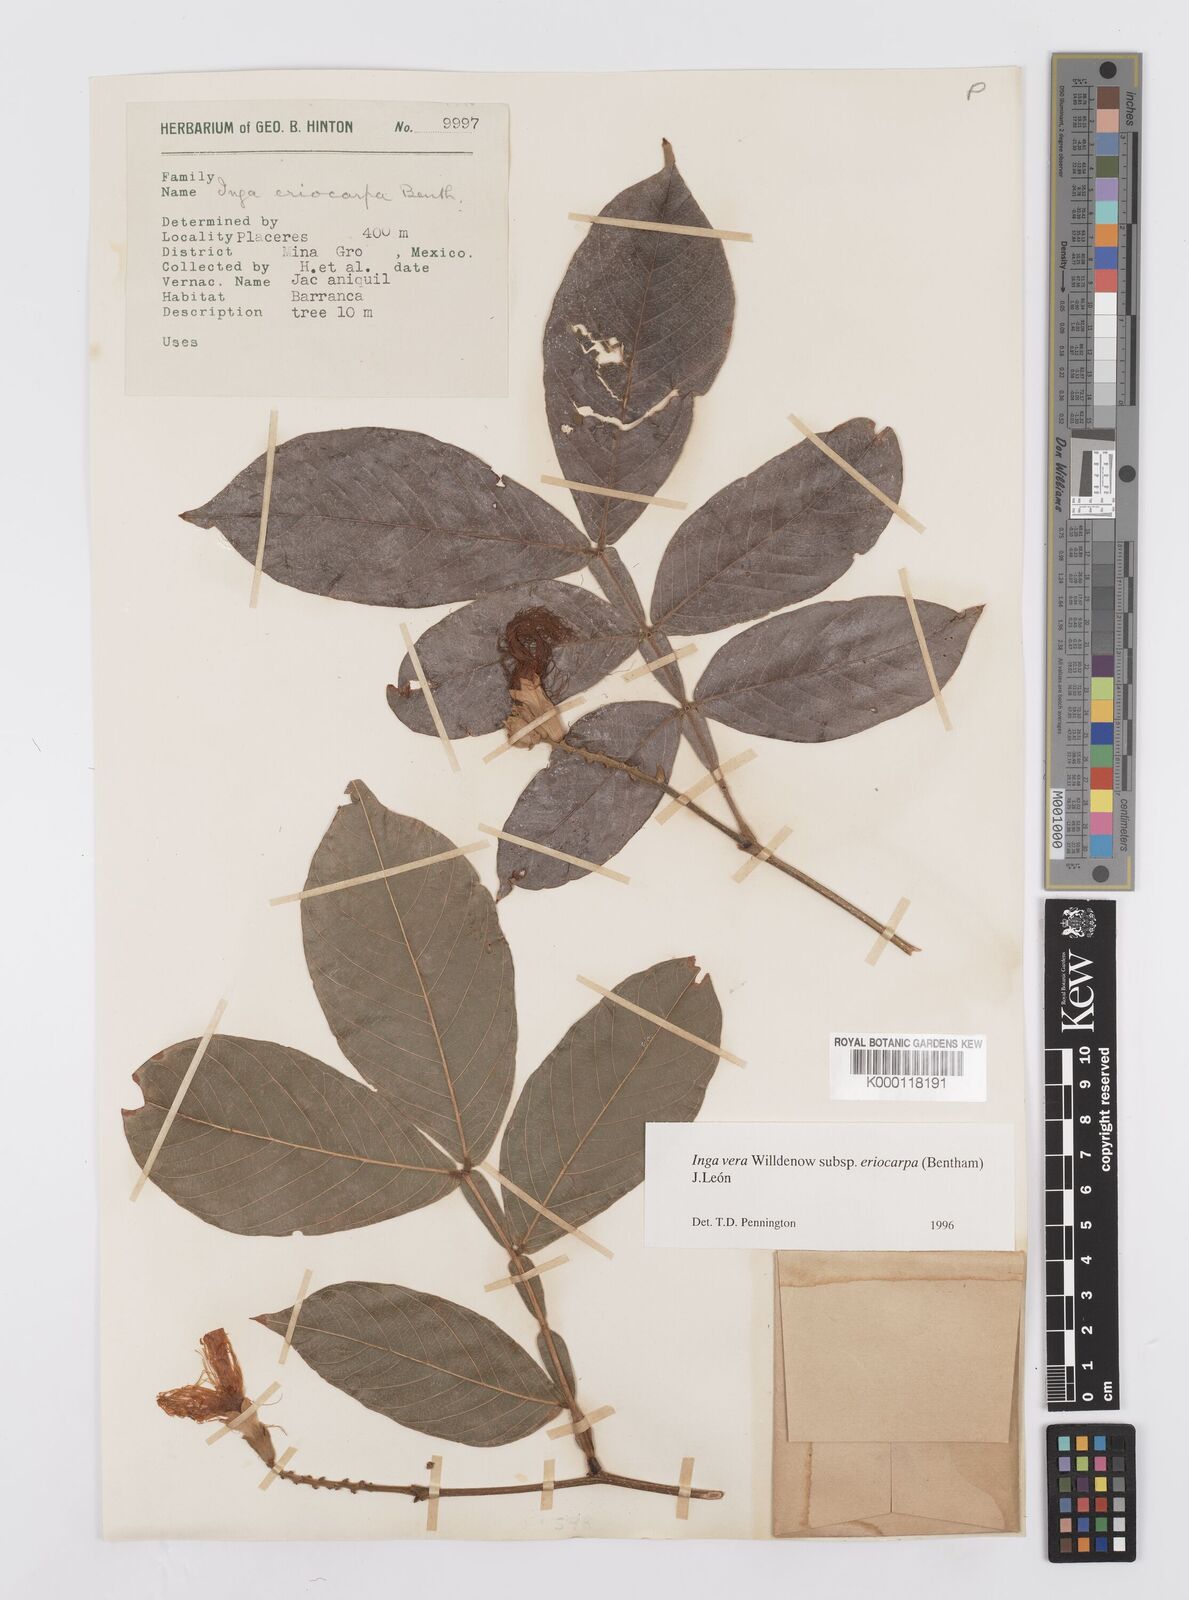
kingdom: Plantae
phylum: Tracheophyta
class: Magnoliopsida
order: Fabales
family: Fabaceae
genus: Inga
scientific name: Inga vera
